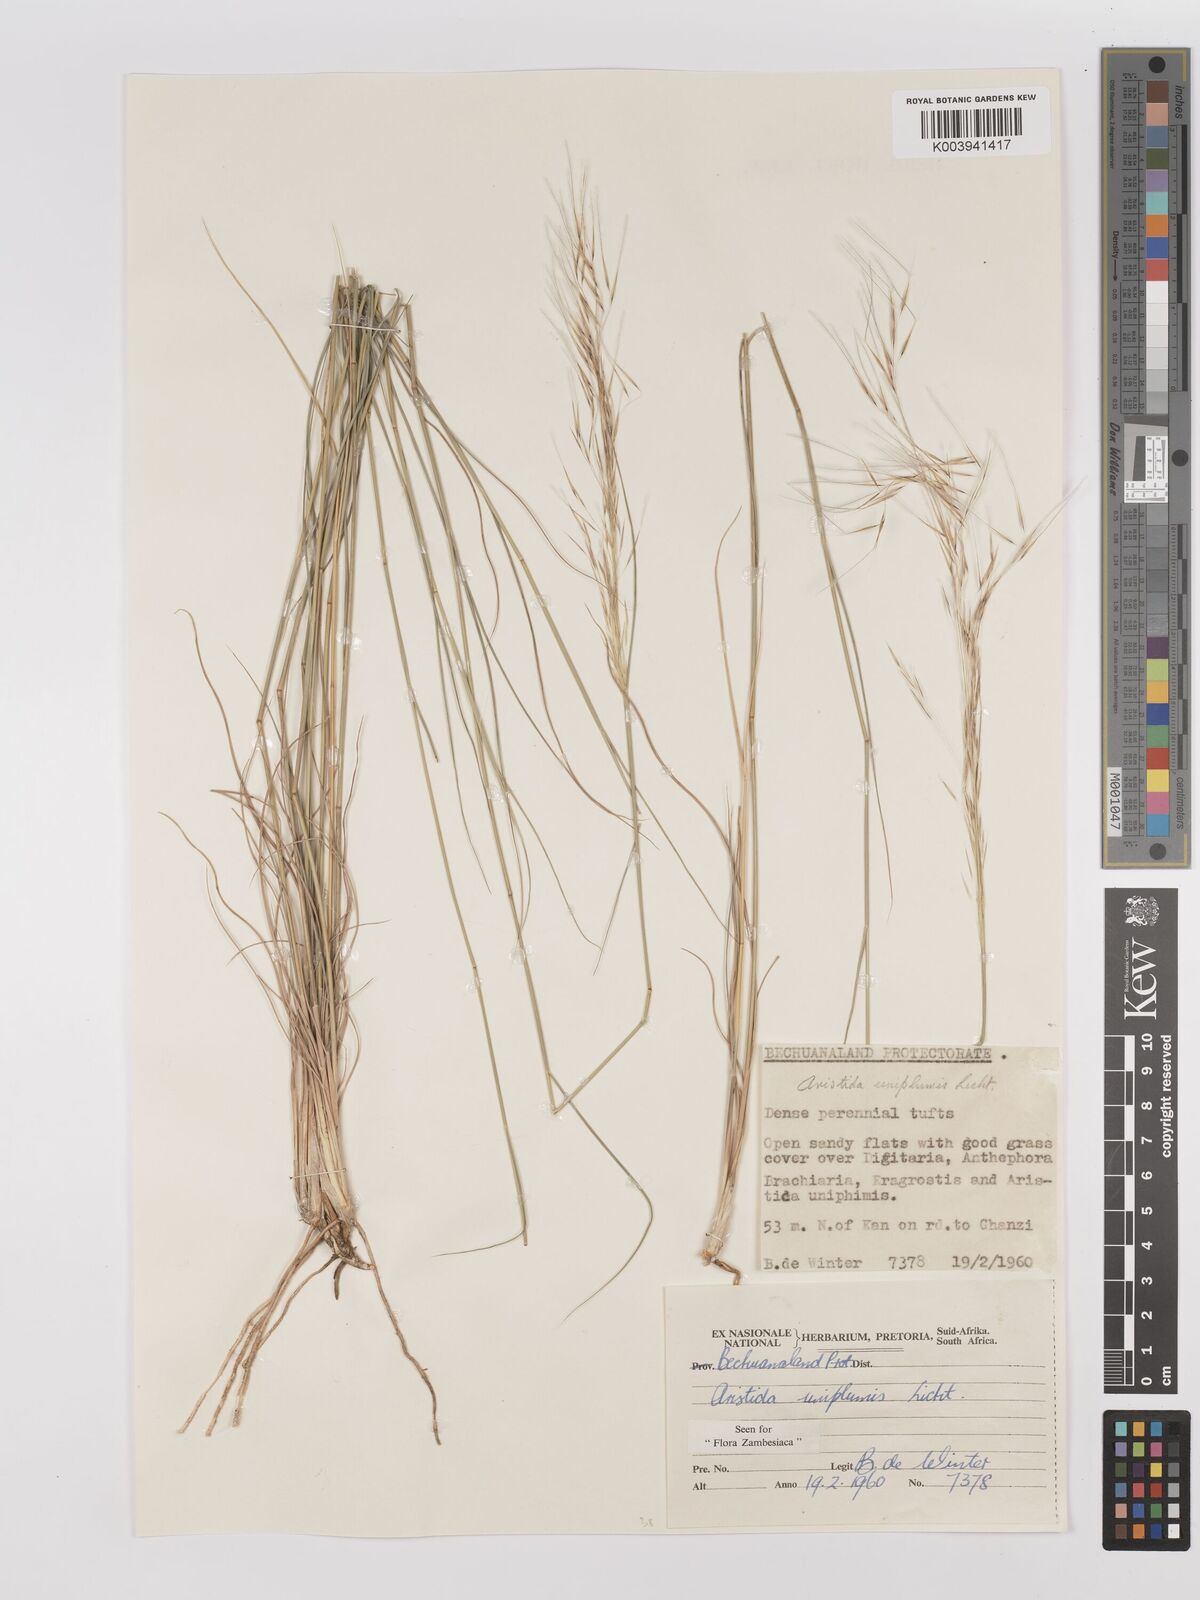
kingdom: Plantae
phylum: Tracheophyta
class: Liliopsida
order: Poales
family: Poaceae
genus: Stipagrostis
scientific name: Stipagrostis uniplumis
